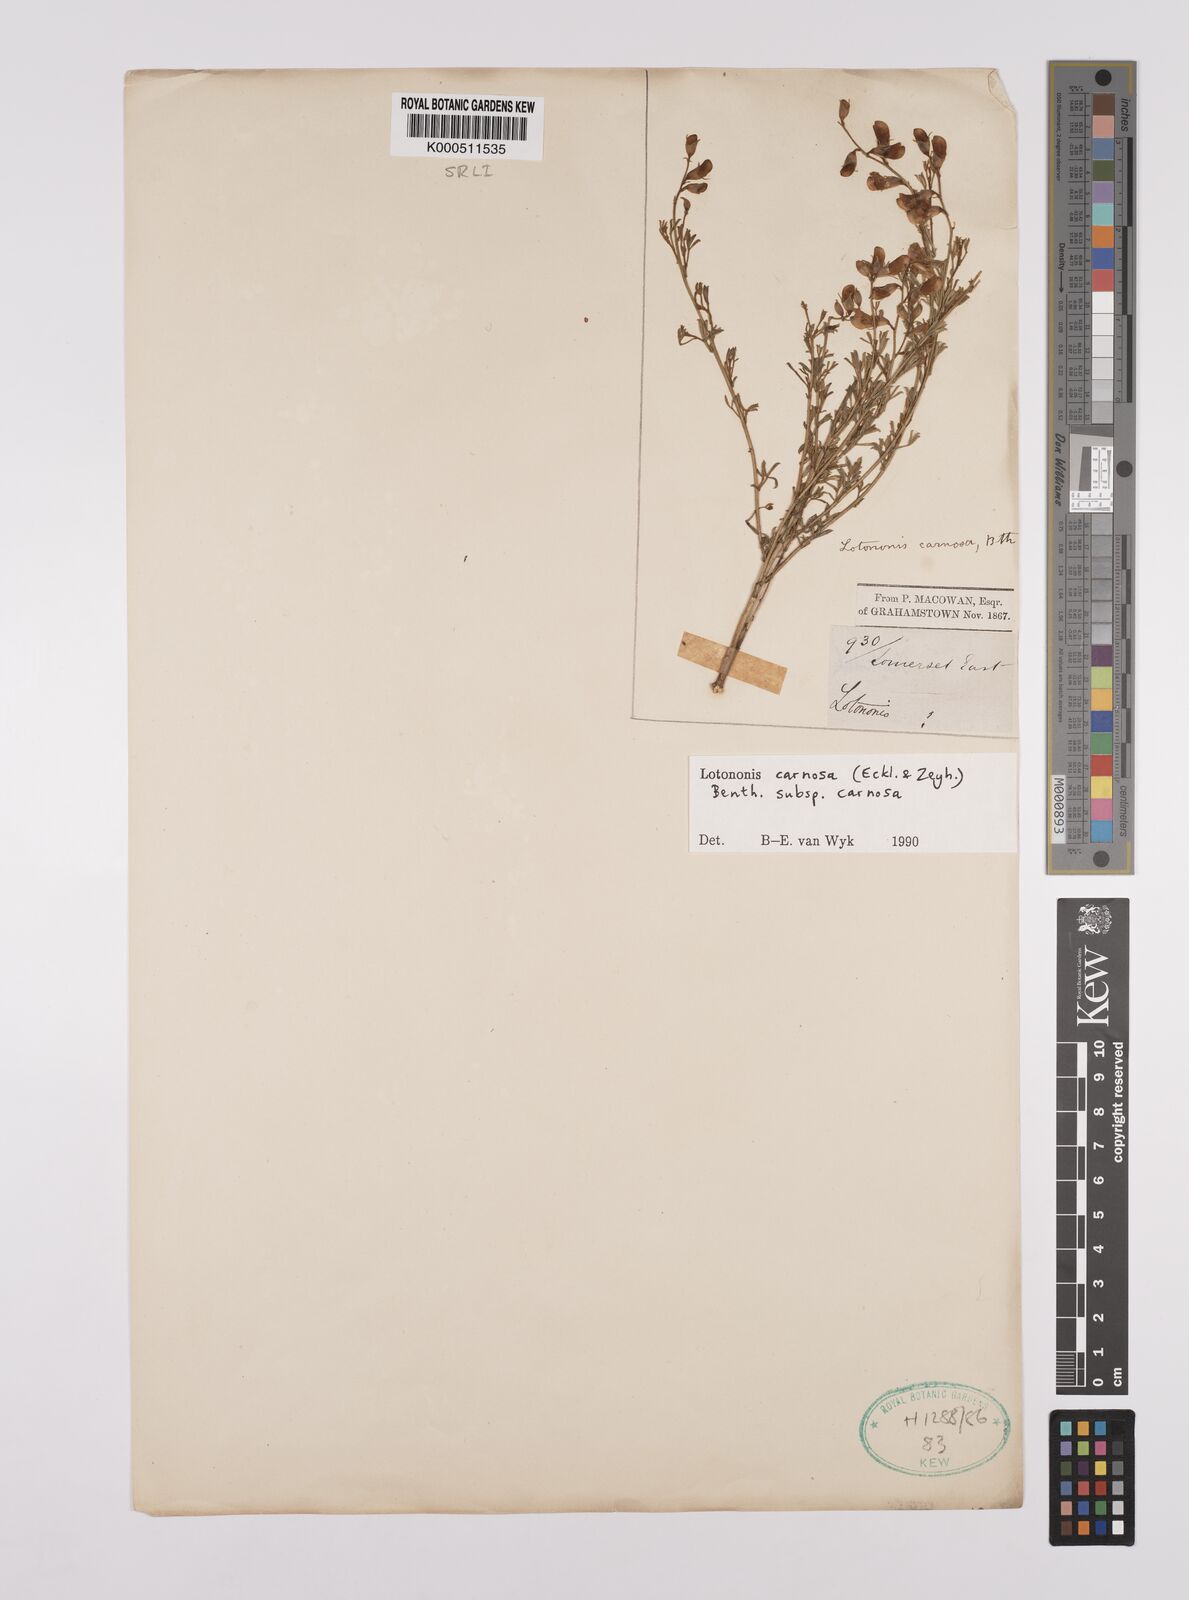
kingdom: Plantae
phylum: Tracheophyta
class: Magnoliopsida
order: Fabales
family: Fabaceae
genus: Lotononis
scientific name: Lotononis carnosa
